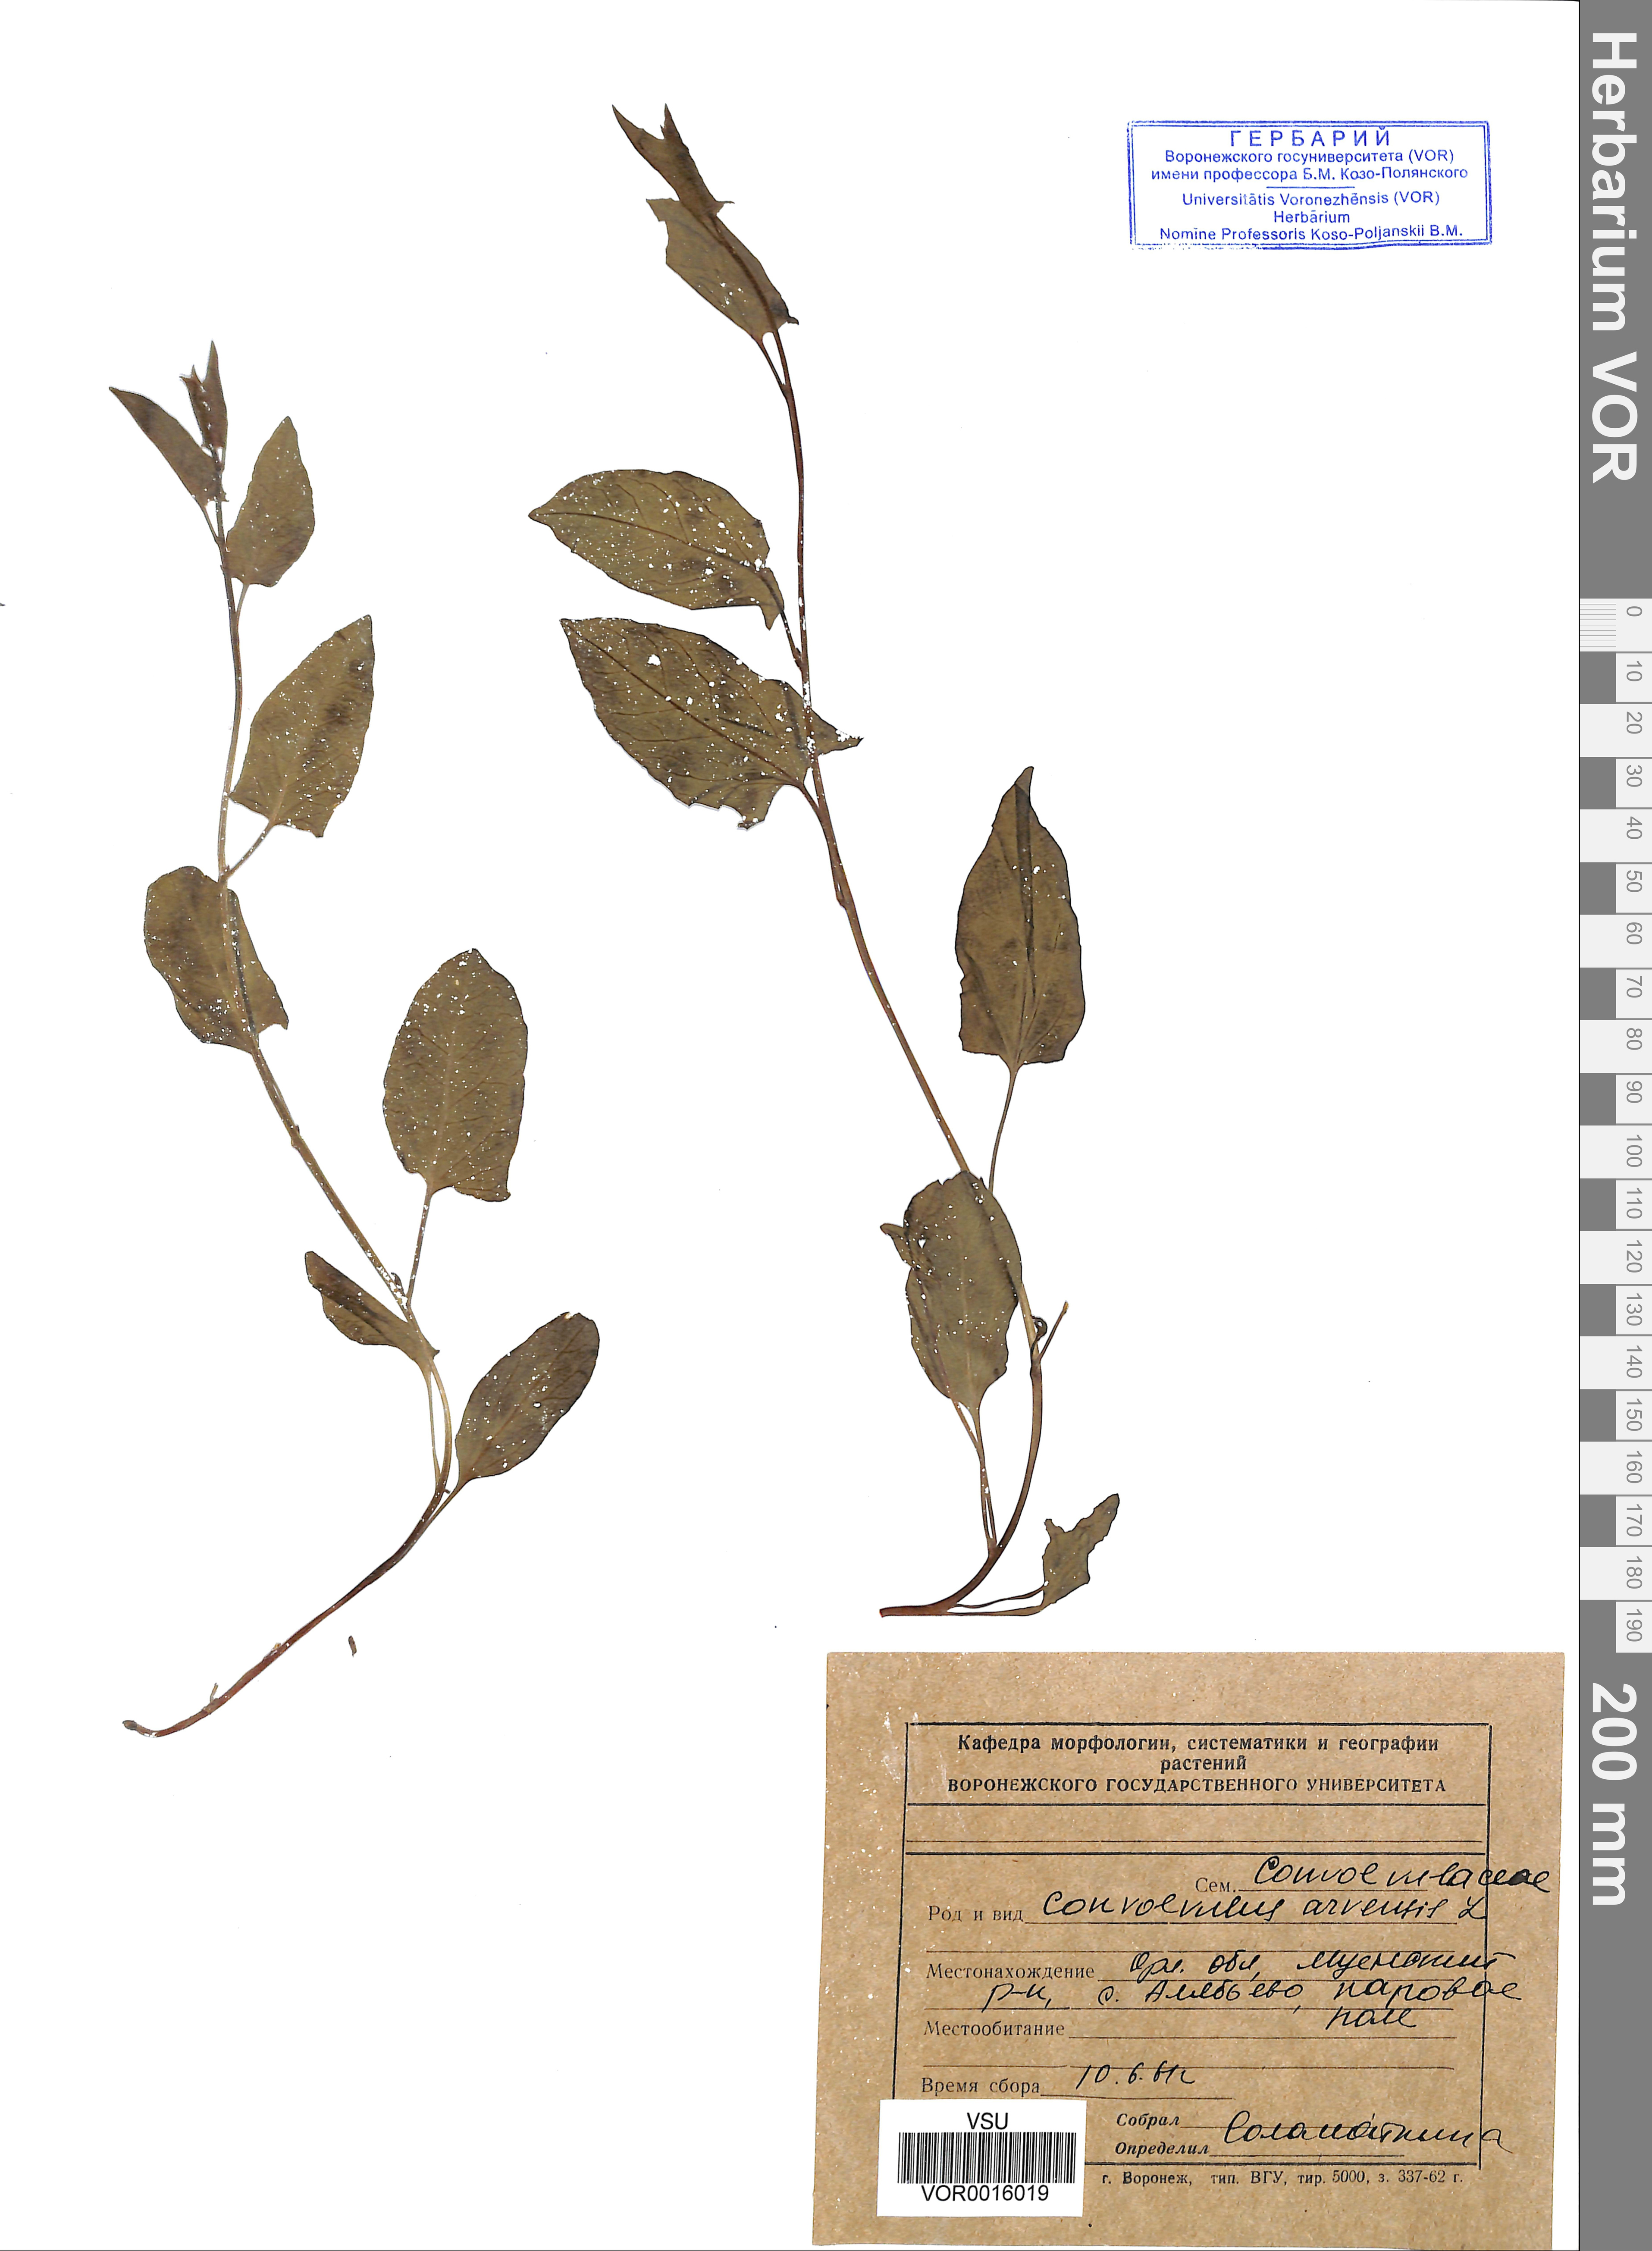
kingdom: Plantae
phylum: Tracheophyta
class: Magnoliopsida
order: Solanales
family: Convolvulaceae
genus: Convolvulus
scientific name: Convolvulus arvensis
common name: Field bindweed
